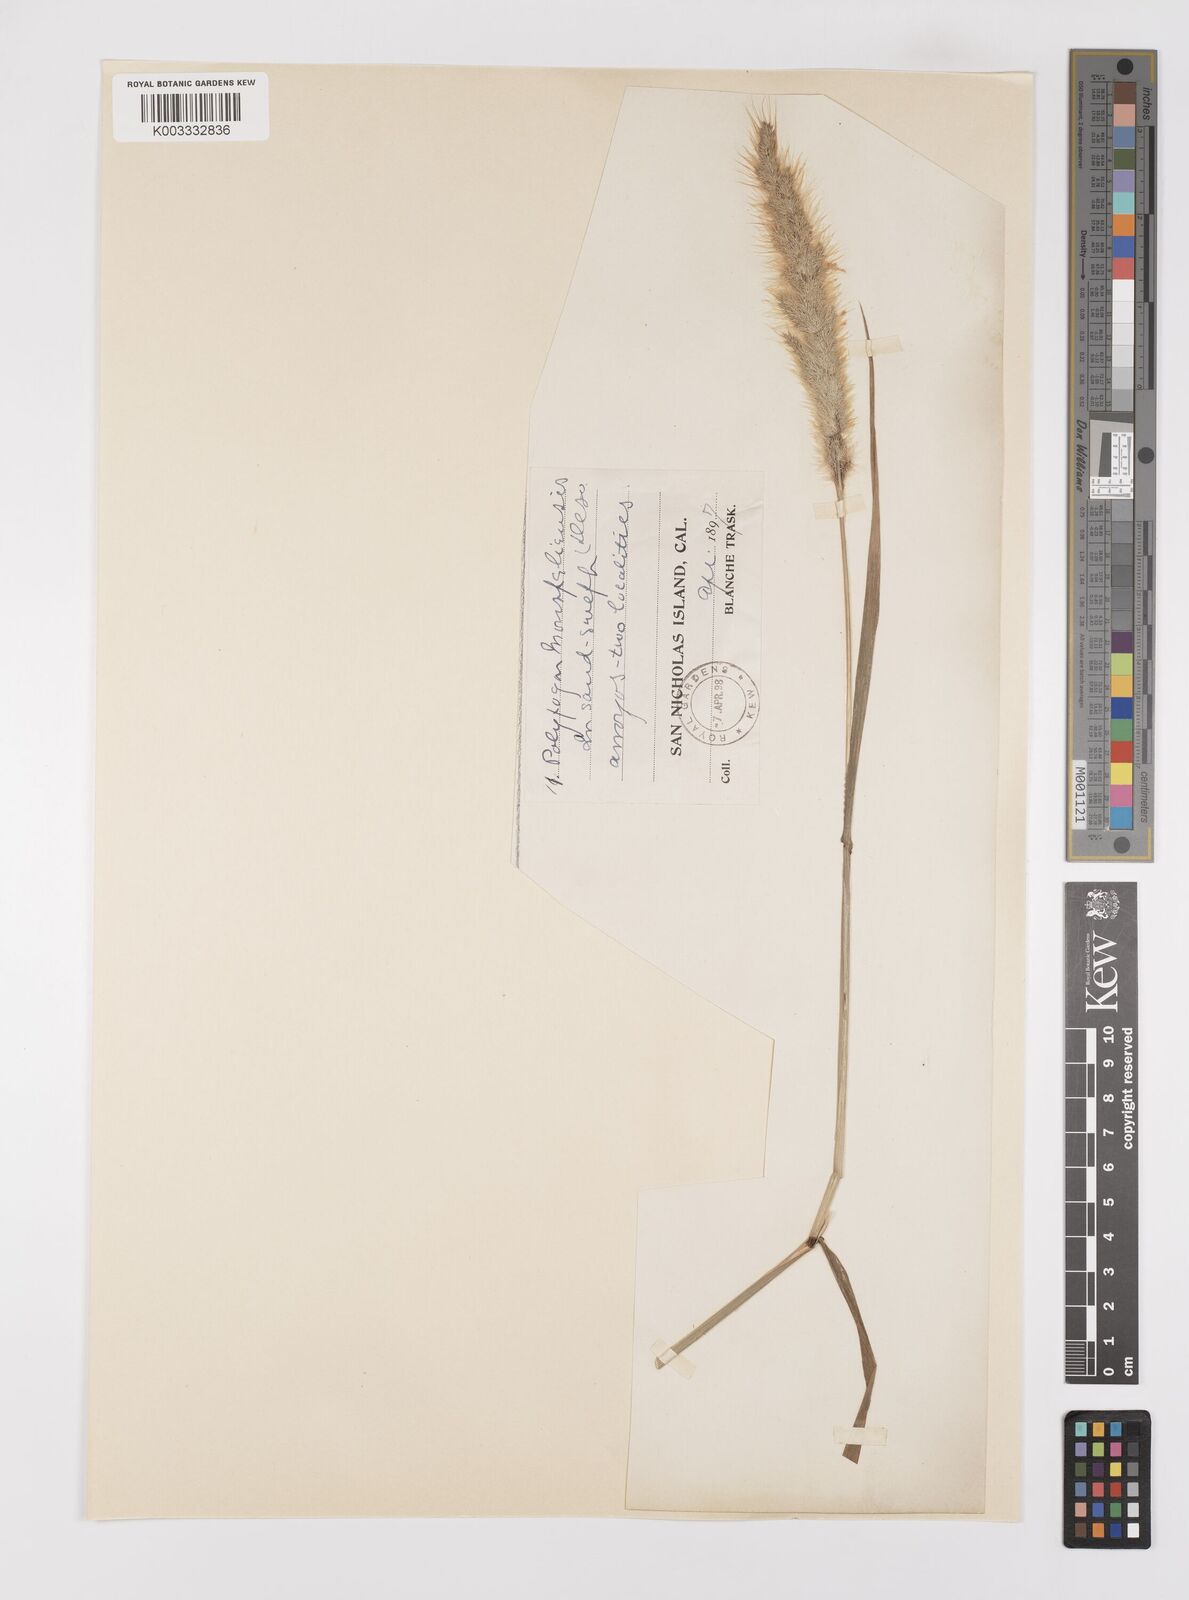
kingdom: Plantae
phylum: Tracheophyta
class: Liliopsida
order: Poales
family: Poaceae
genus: Polypogon
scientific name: Polypogon monspeliensis
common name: Annual rabbitsfoot grass
